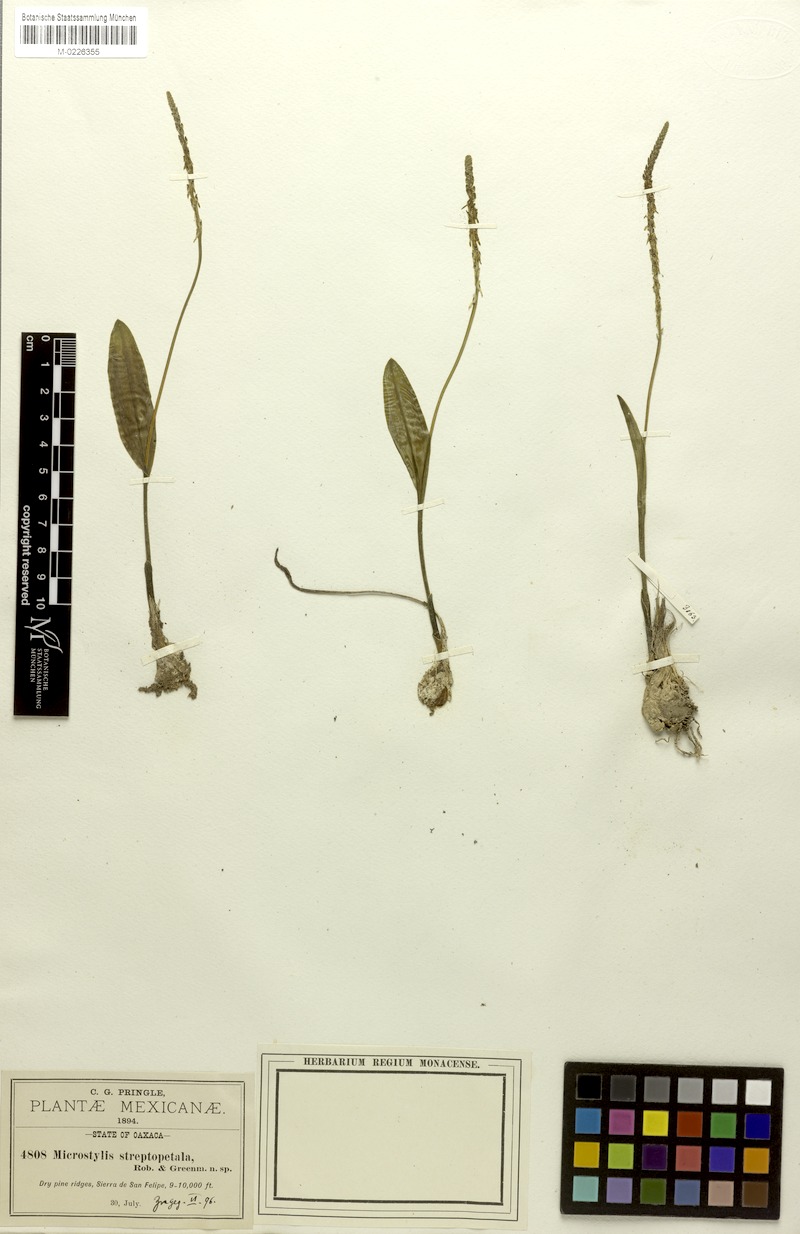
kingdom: Plantae
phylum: Tracheophyta
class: Liliopsida
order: Asparagales
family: Orchidaceae
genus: Malaxis
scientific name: Malaxis streptopetala
